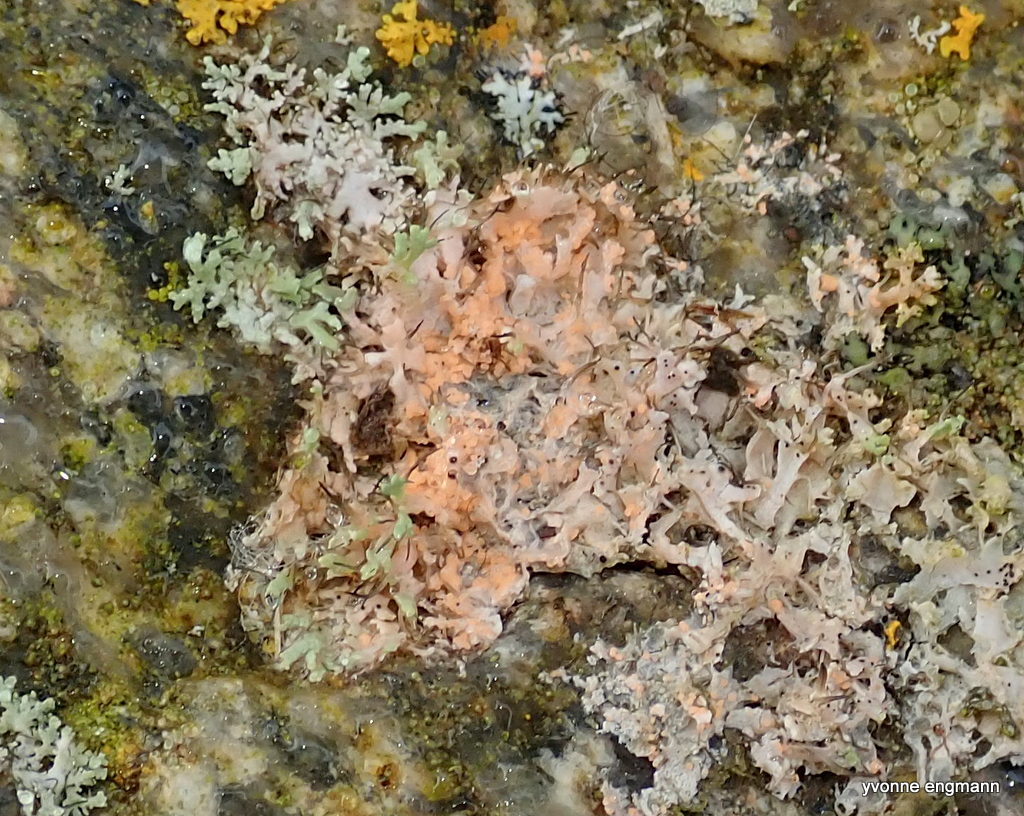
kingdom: Fungi
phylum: Basidiomycota
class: Agaricomycetes
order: Corticiales
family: Corticiaceae
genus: Erythricium
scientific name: Erythricium aurantiacum
